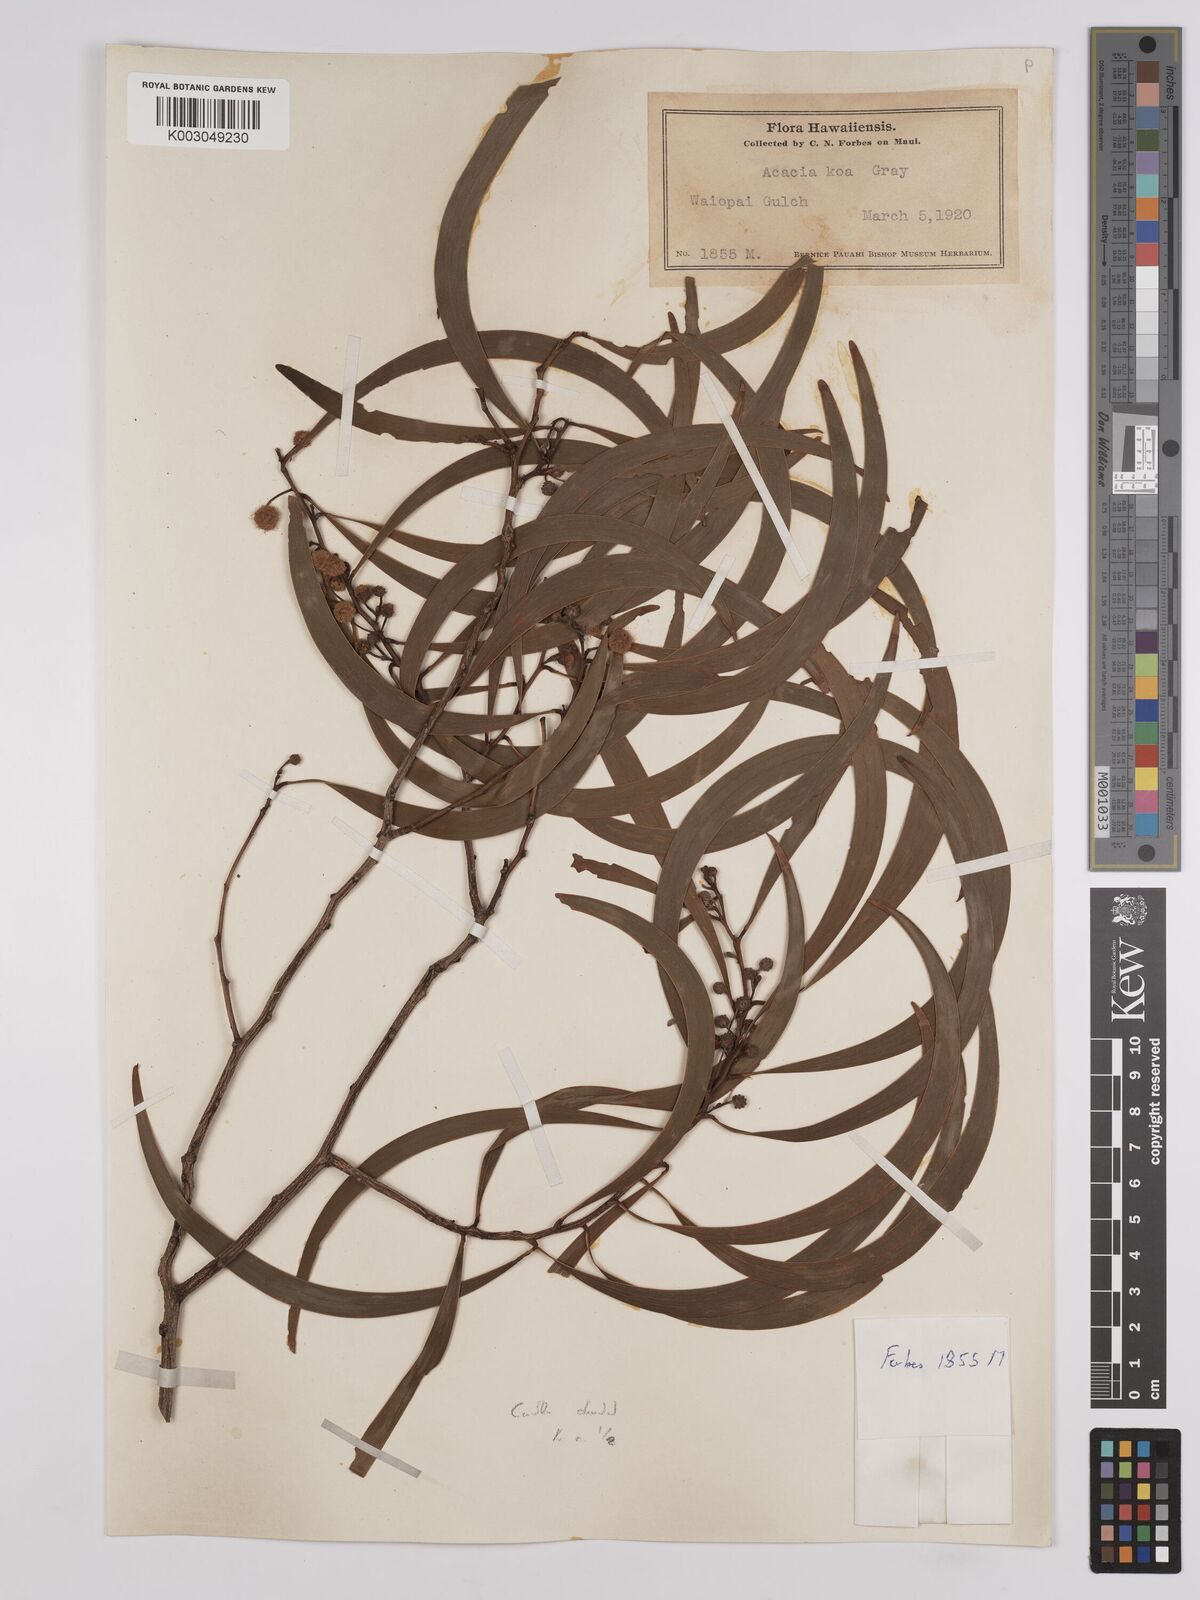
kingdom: Plantae
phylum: Tracheophyta
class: Magnoliopsida
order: Fabales
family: Fabaceae
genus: Acacia
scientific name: Acacia koa
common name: Gray koa
